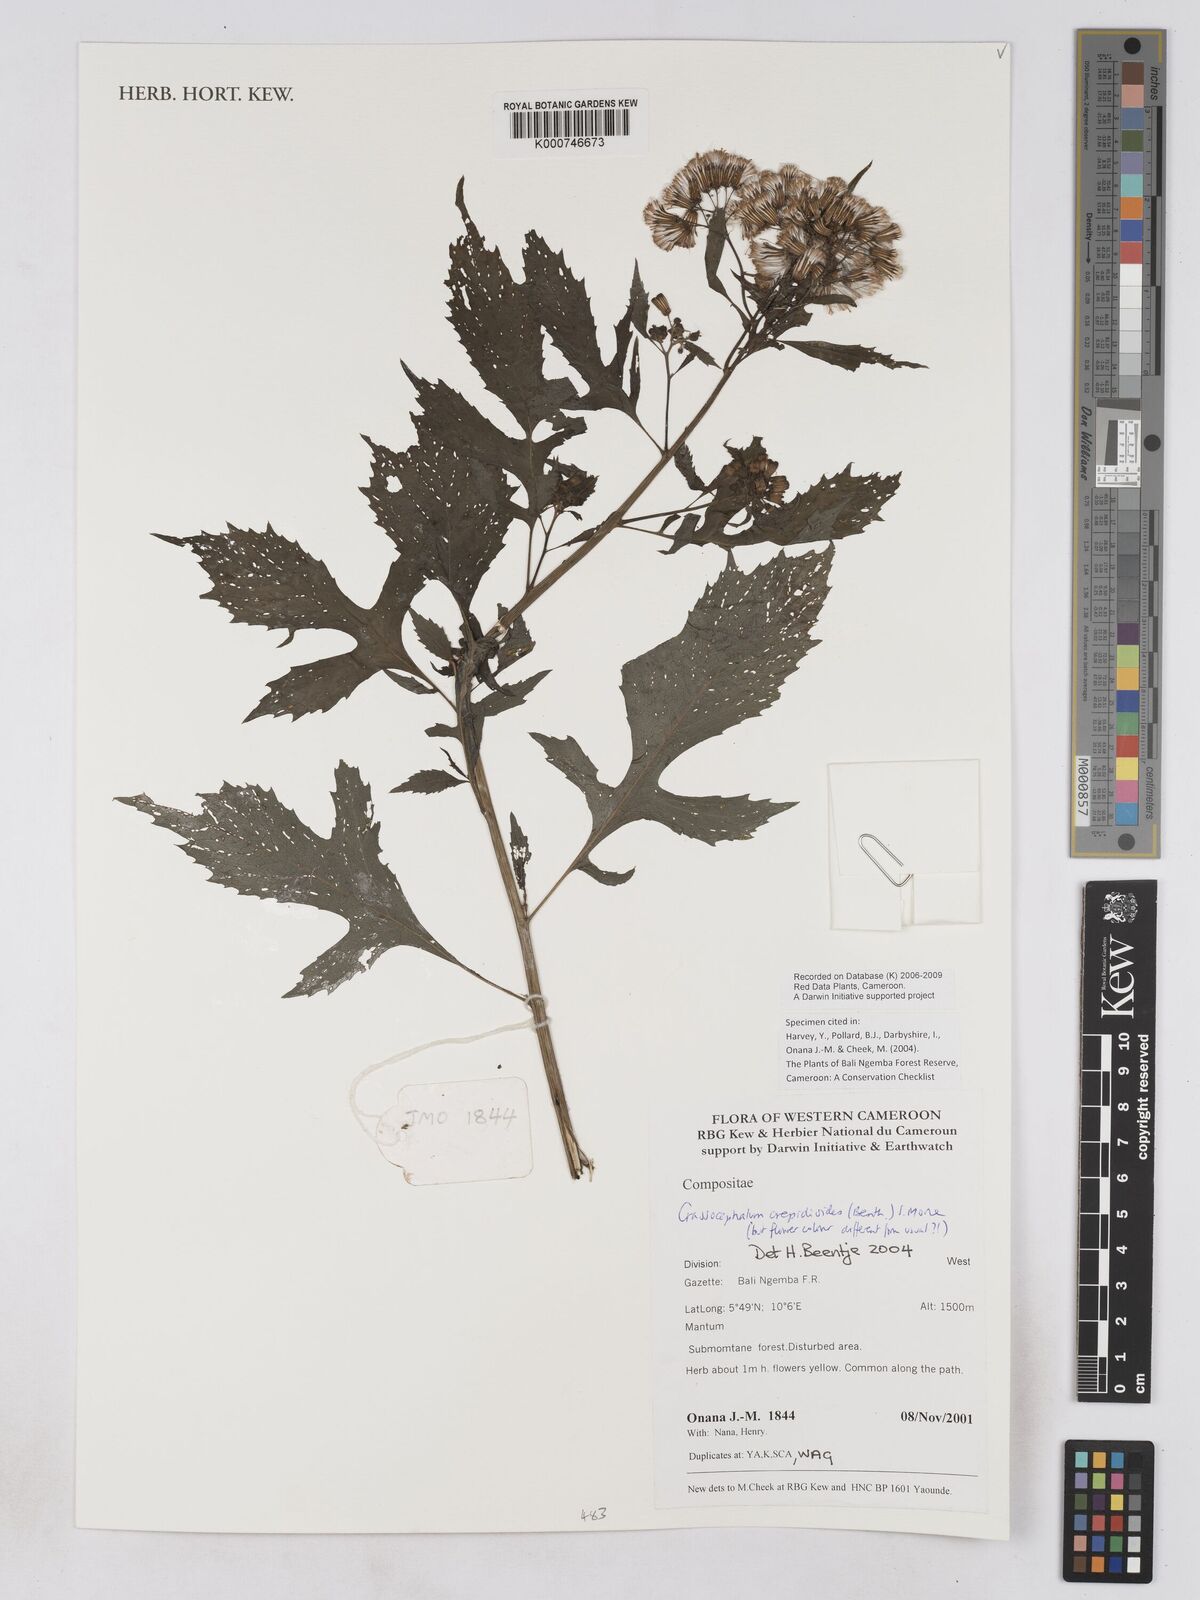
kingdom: Plantae
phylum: Tracheophyta
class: Magnoliopsida
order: Asterales
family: Asteraceae
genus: Crassocephalum
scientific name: Crassocephalum crepidioides
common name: Redflower ragleaf
